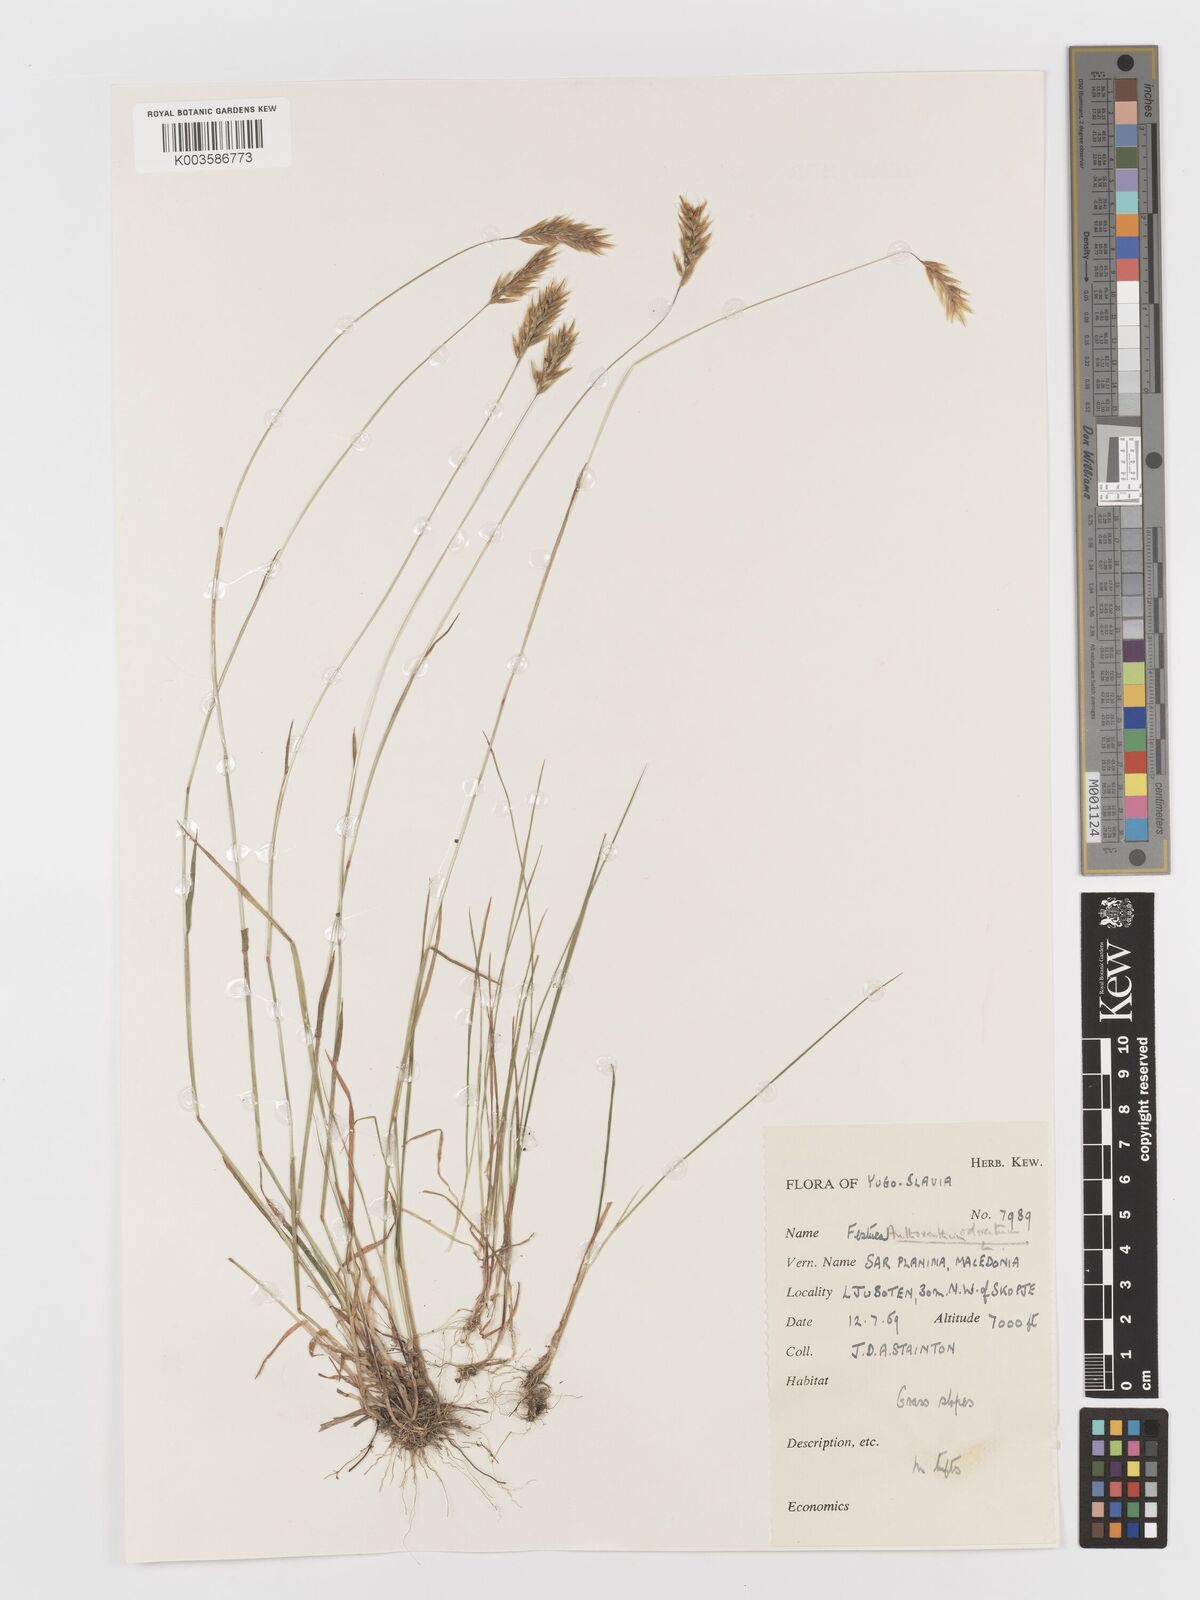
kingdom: Plantae
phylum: Tracheophyta
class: Liliopsida
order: Poales
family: Poaceae
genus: Anthoxanthum
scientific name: Anthoxanthum odoratum
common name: Sweet vernalgrass
